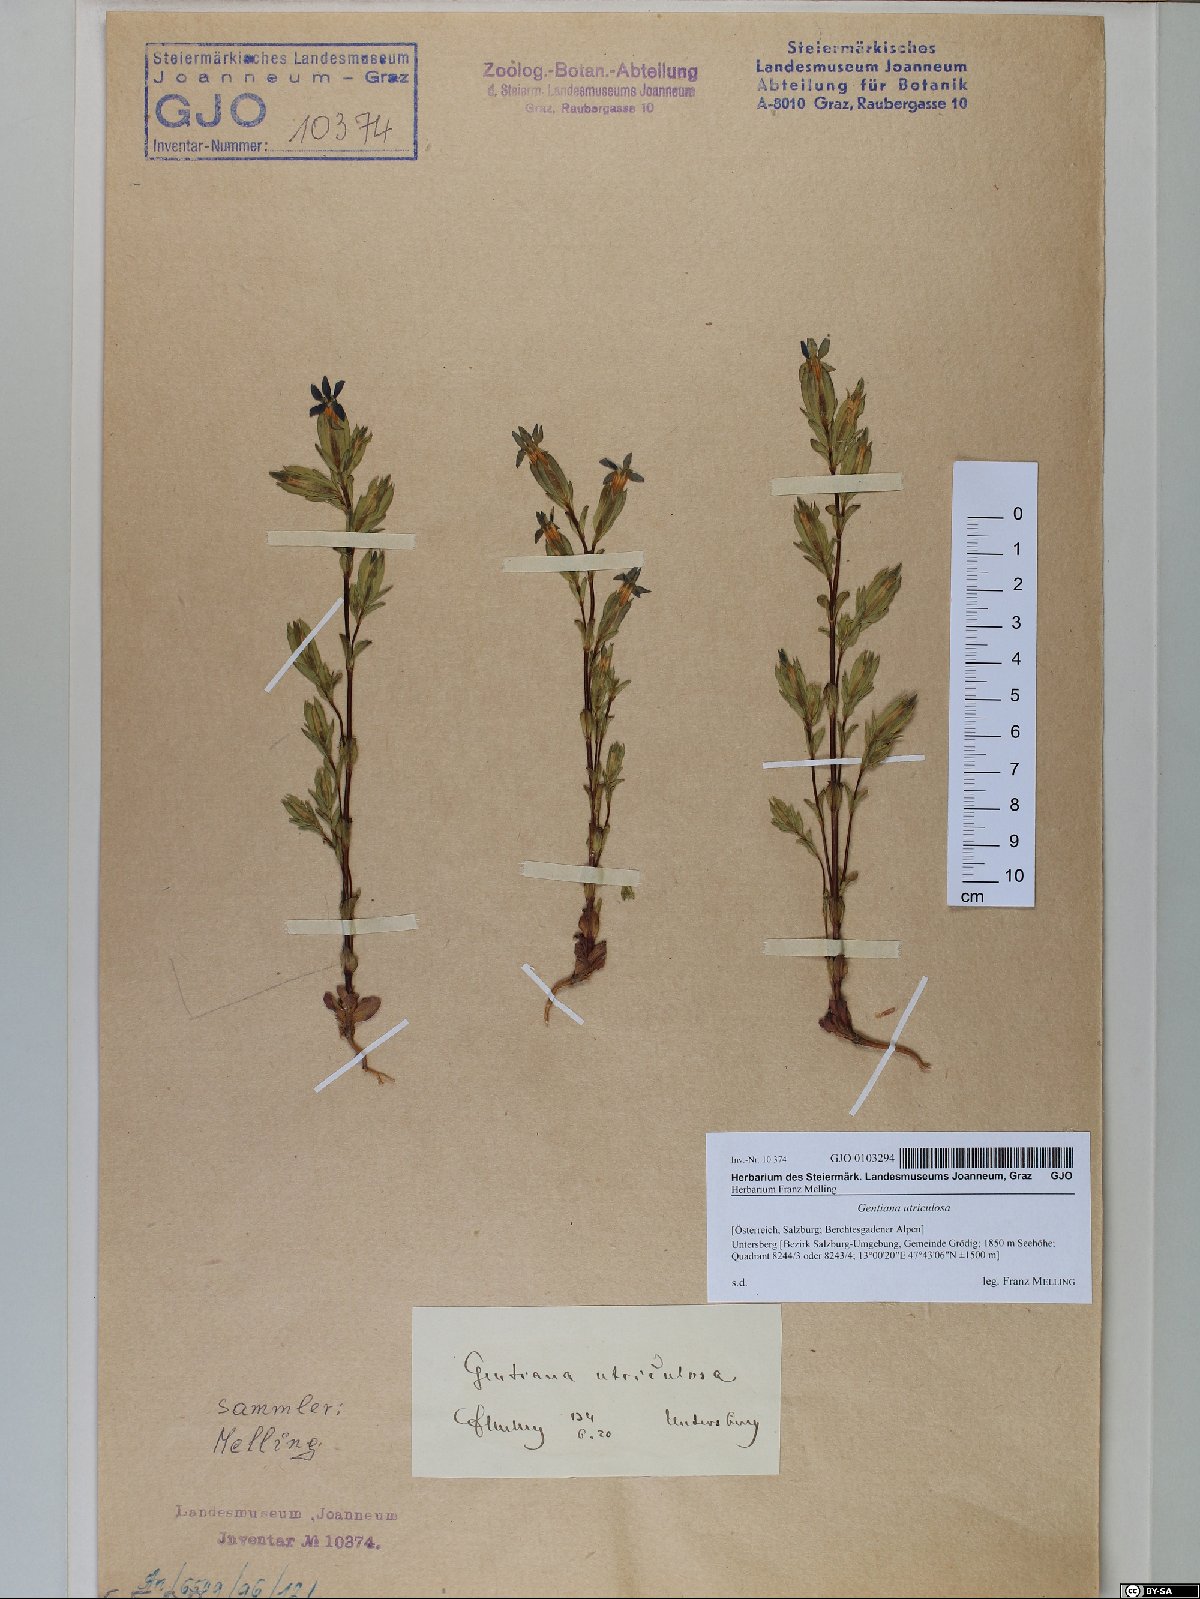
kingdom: Plantae
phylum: Tracheophyta
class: Magnoliopsida
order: Gentianales
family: Gentianaceae
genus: Gentiana
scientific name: Gentiana utriculosa
